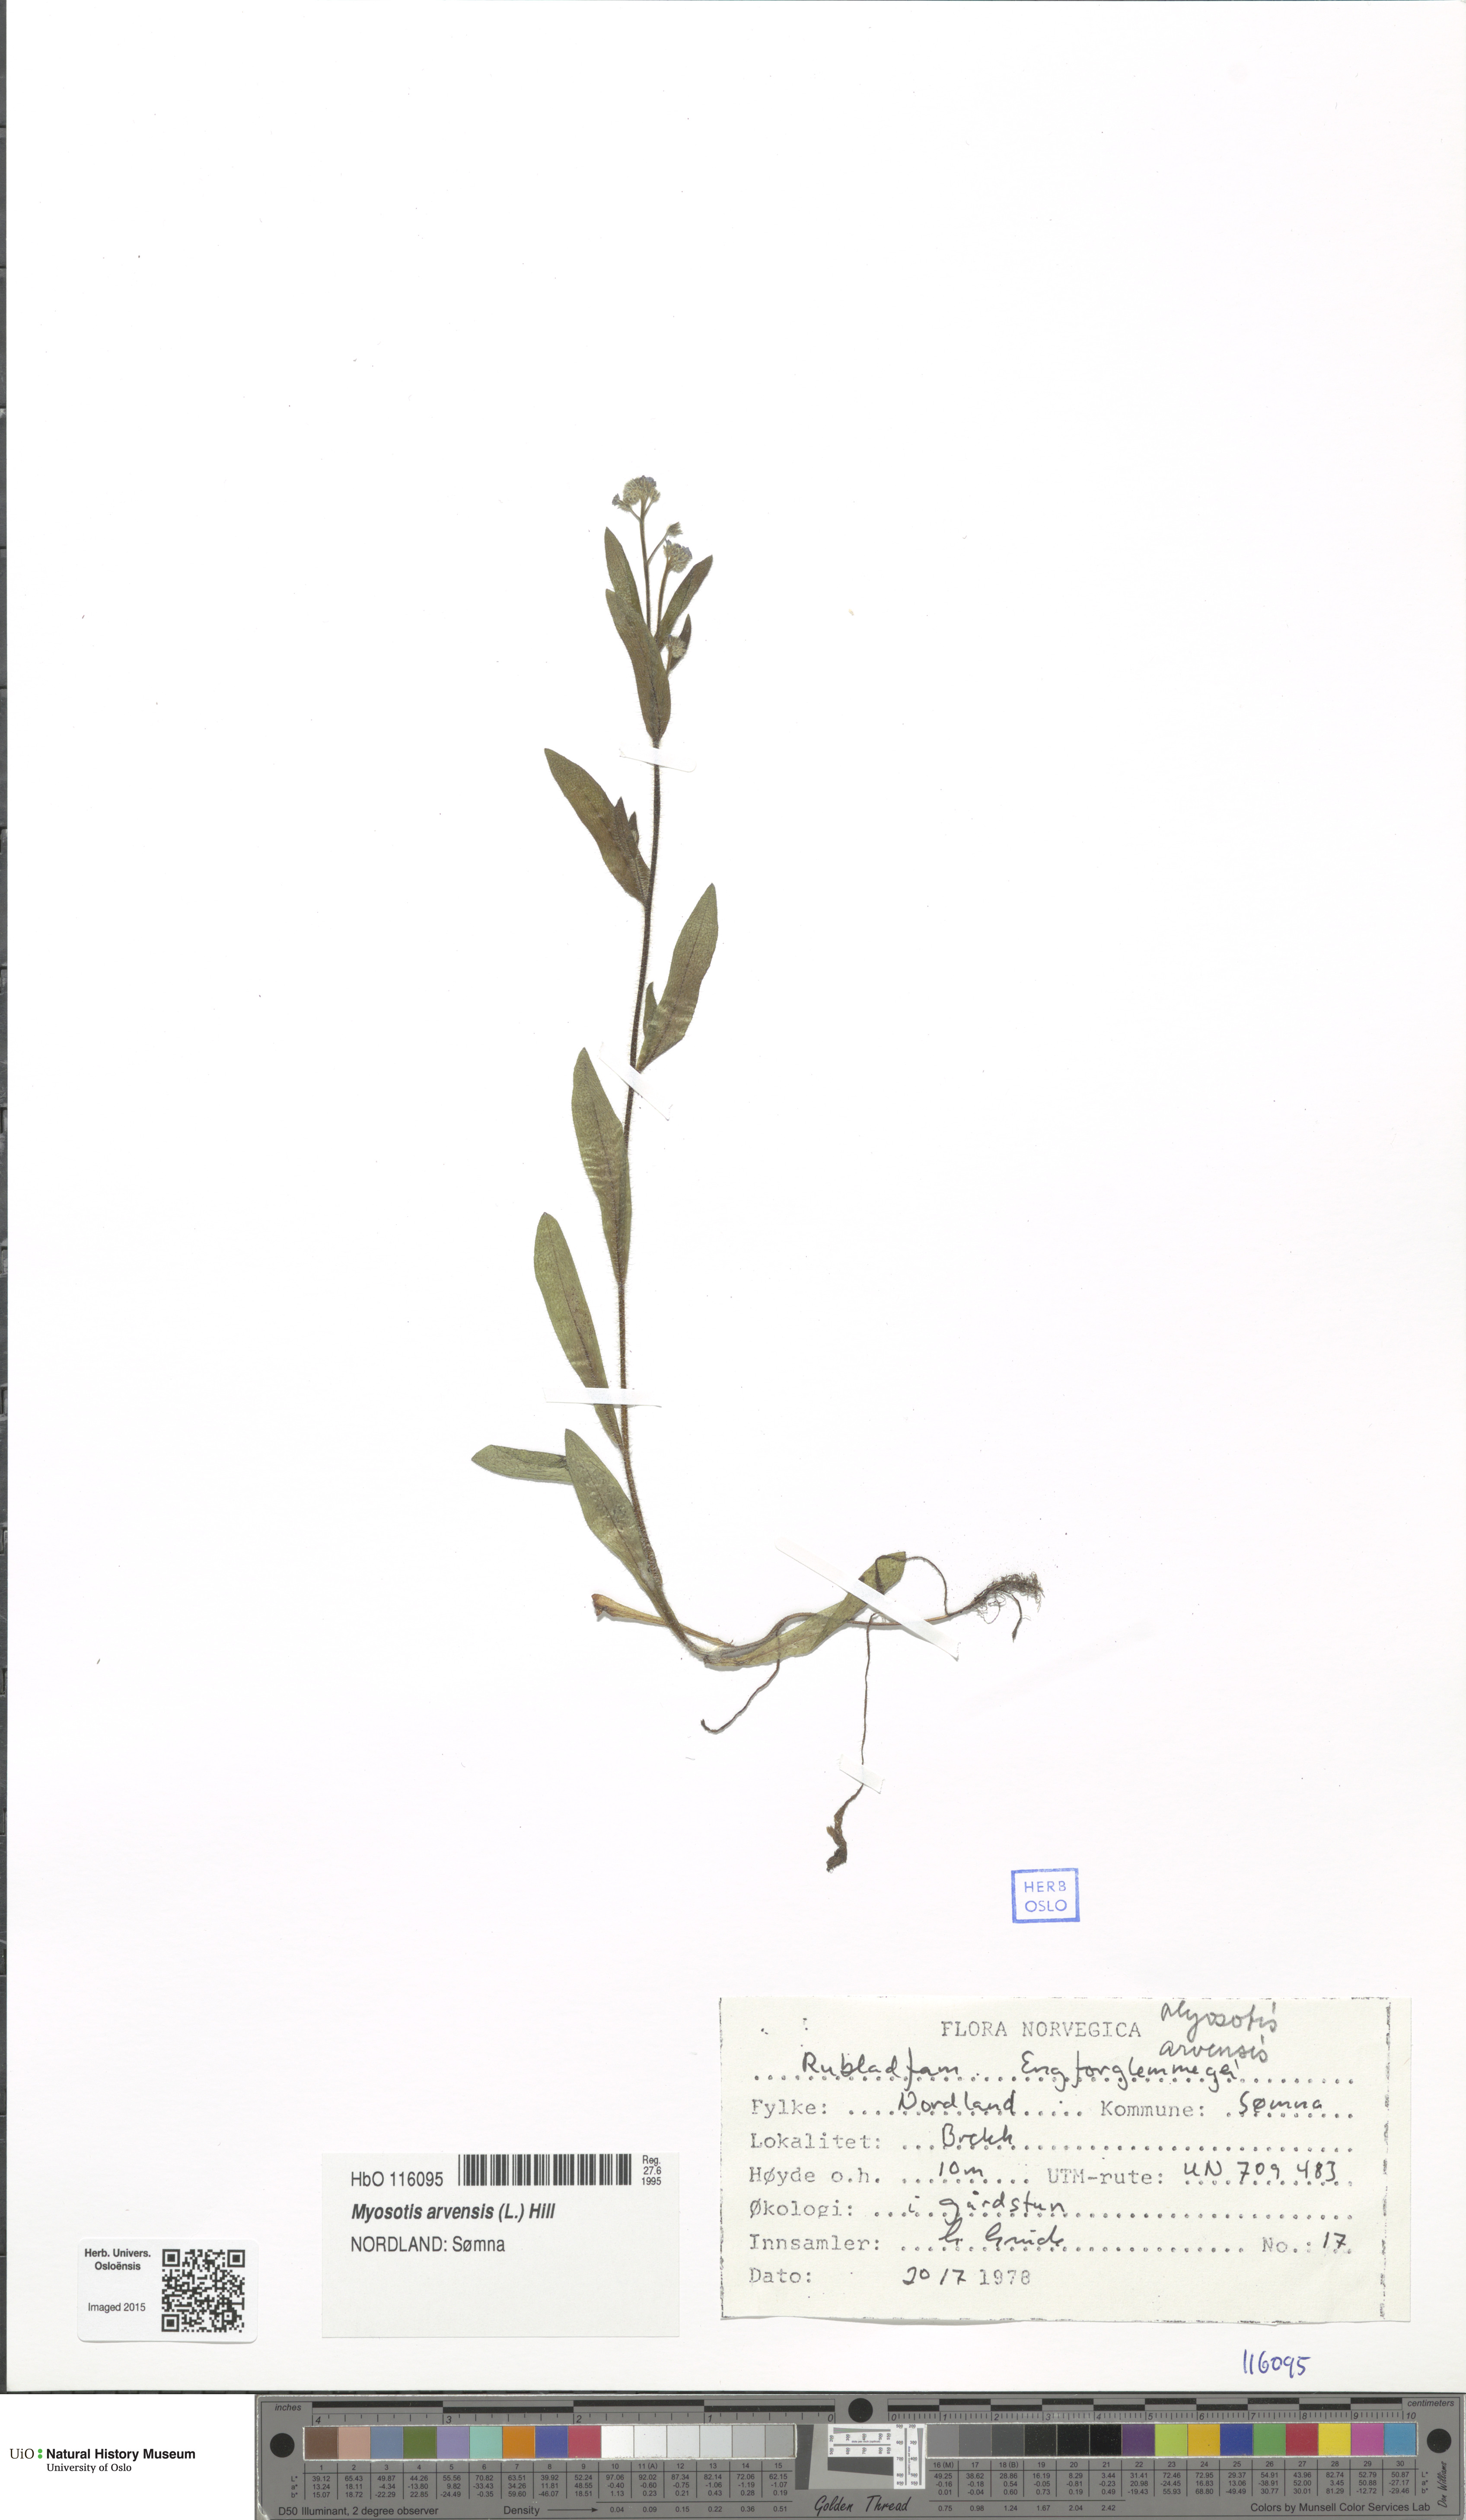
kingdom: Plantae
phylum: Tracheophyta
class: Magnoliopsida
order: Boraginales
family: Boraginaceae
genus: Myosotis
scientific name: Myosotis arvensis
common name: Field forget-me-not
